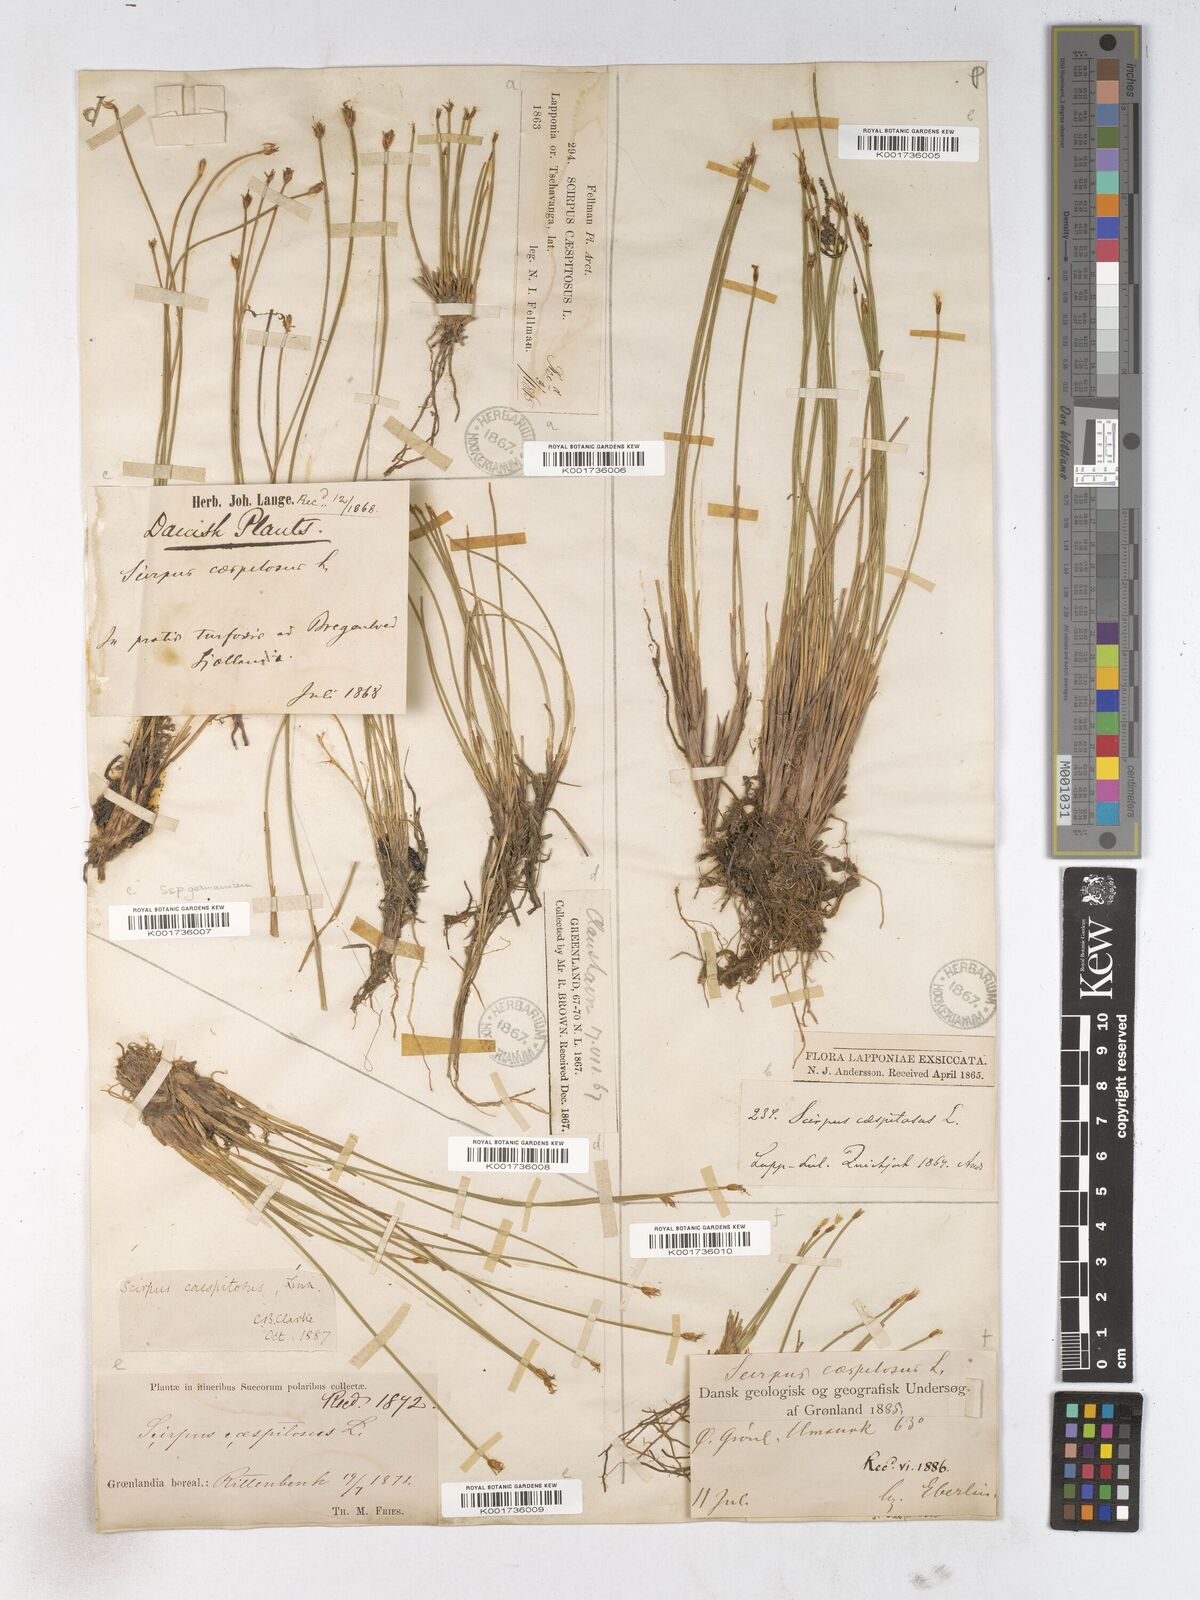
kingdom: Plantae
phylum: Tracheophyta
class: Liliopsida
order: Poales
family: Cyperaceae
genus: Trichophorum
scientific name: Trichophorum cespitosum
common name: Cespitose bulrush
